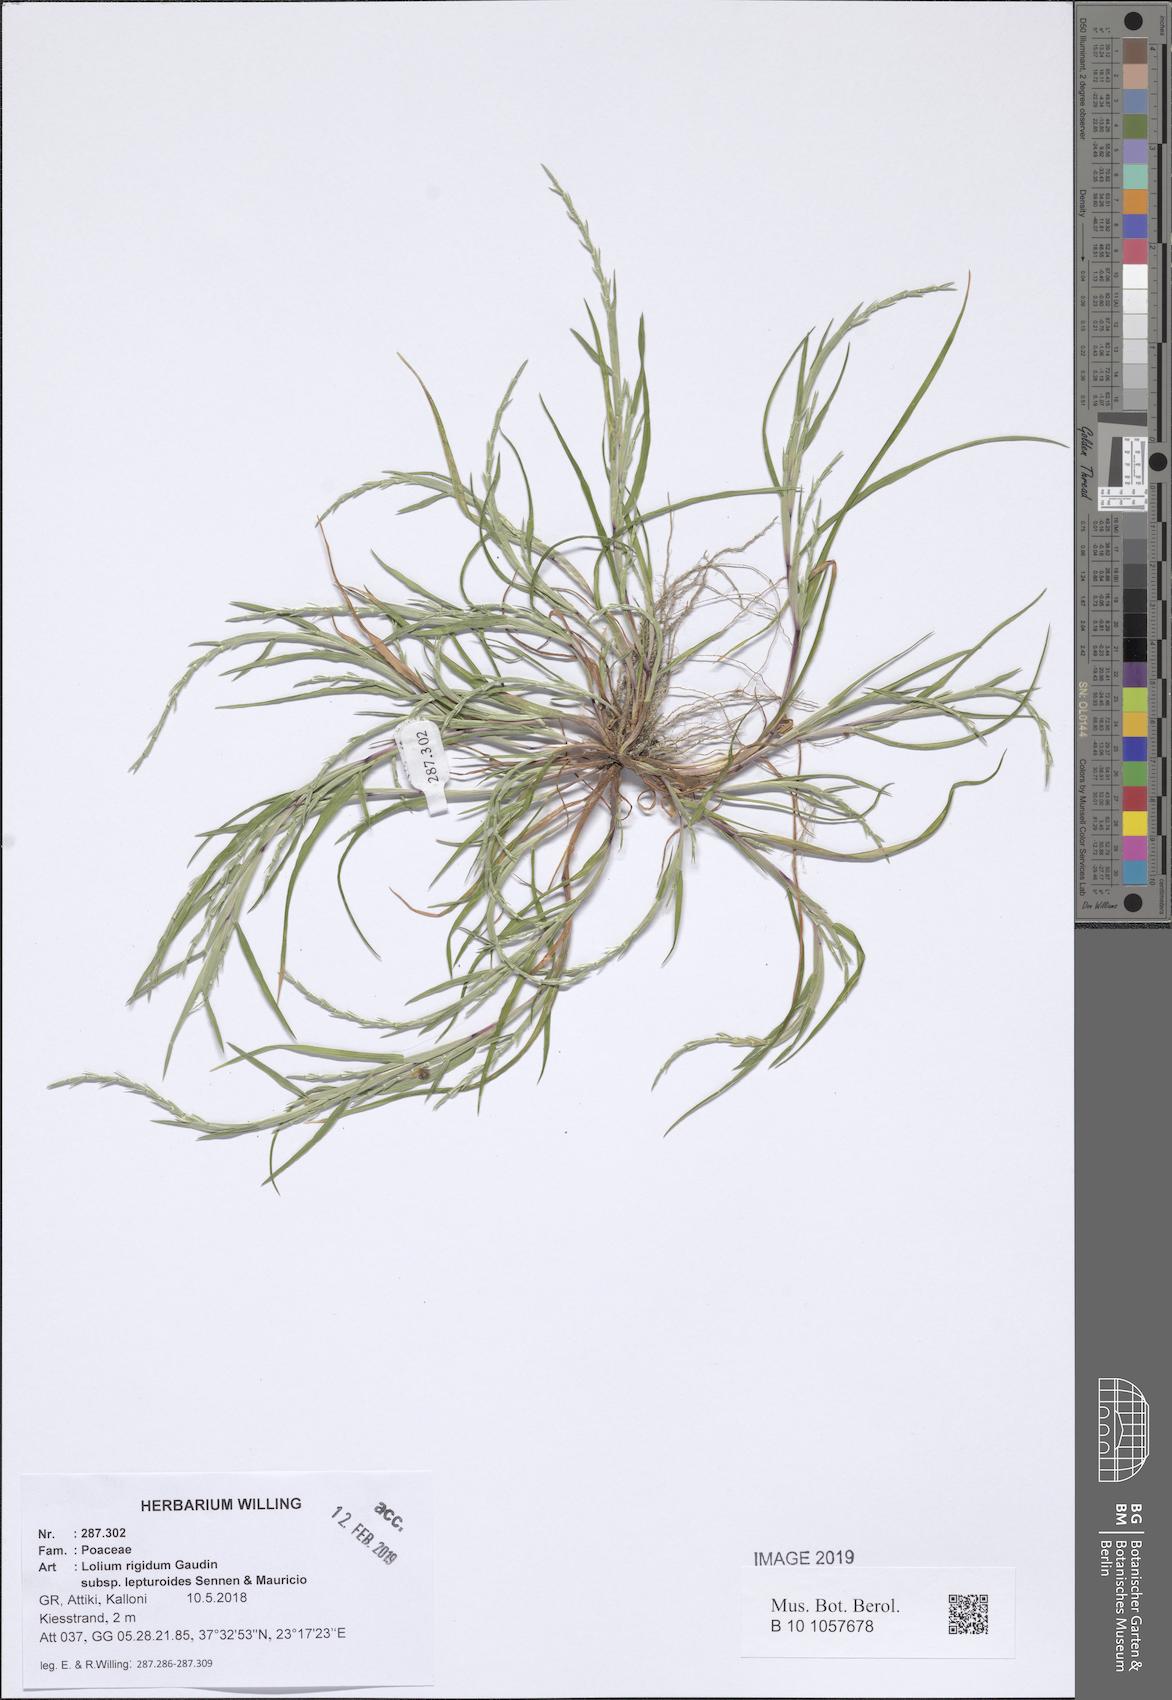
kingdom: Plantae
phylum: Tracheophyta
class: Liliopsida
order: Poales
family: Poaceae
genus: Lolium
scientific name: Lolium rigidum
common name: Wimmera ryegrass
